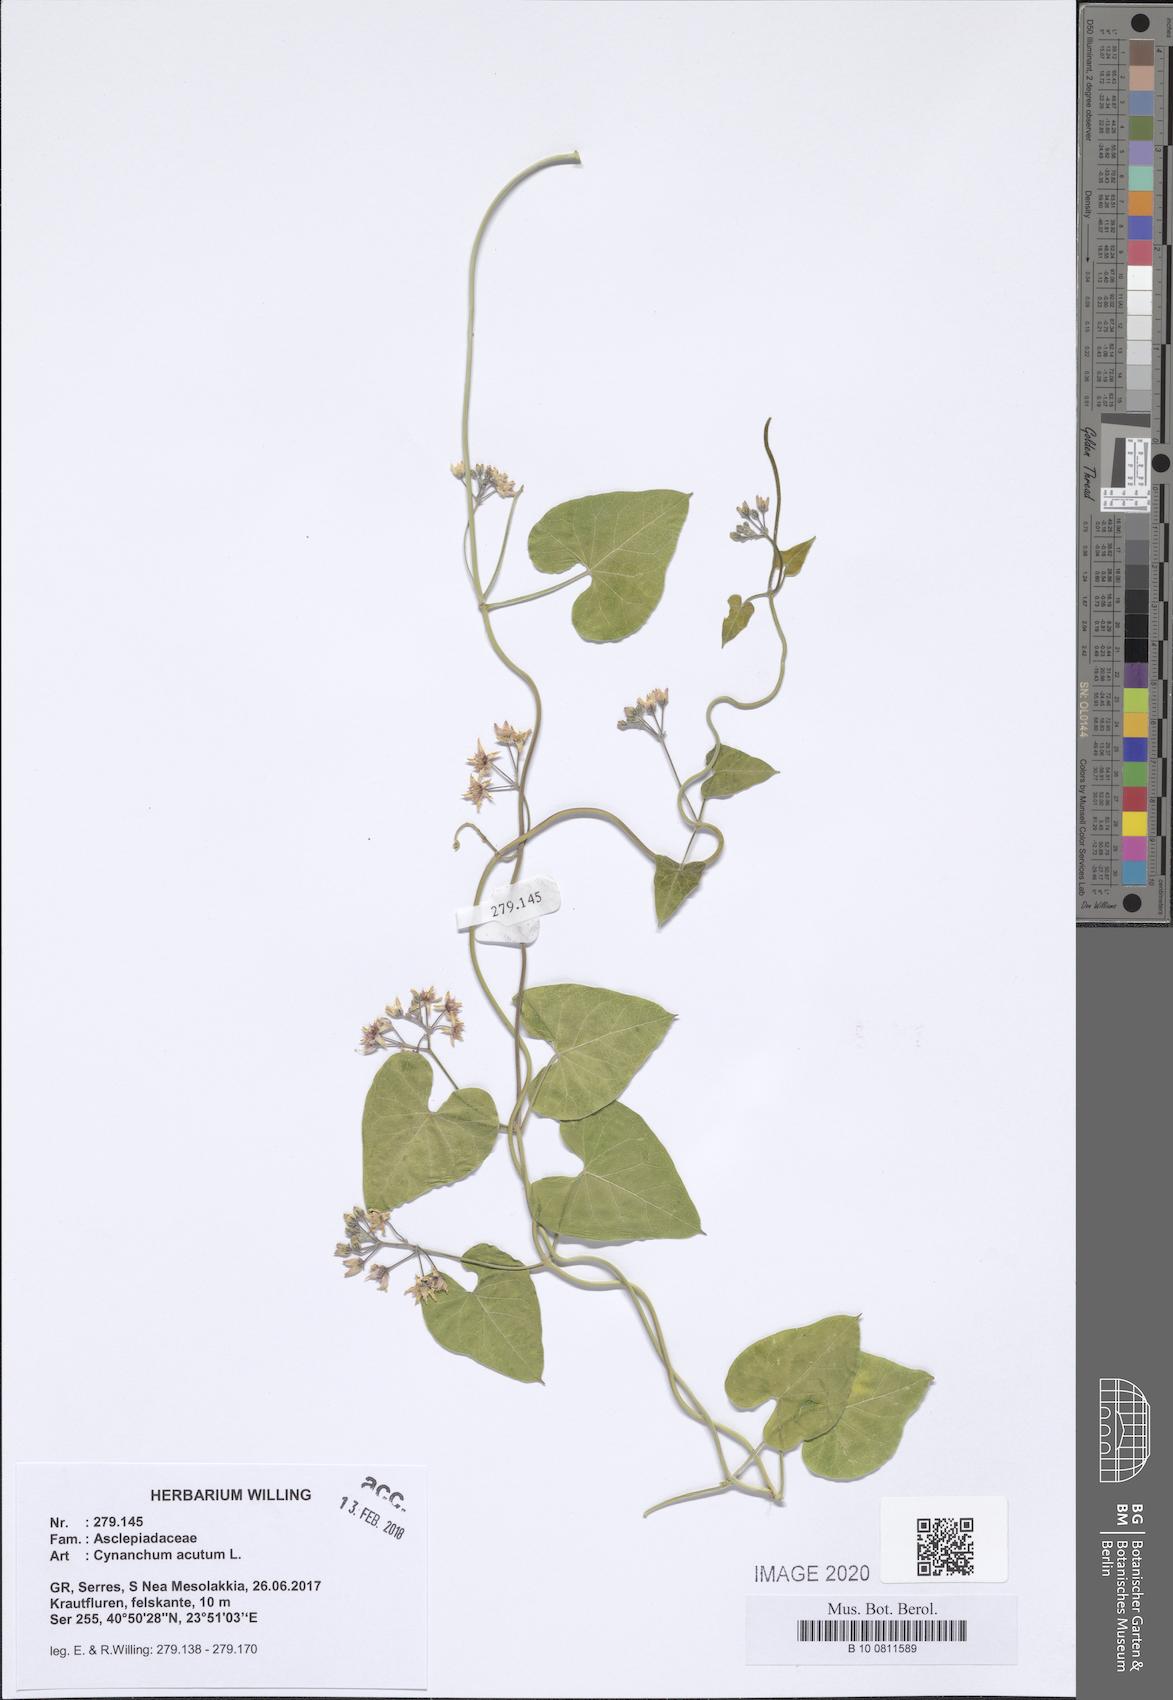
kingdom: Plantae
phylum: Tracheophyta
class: Magnoliopsida
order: Gentianales
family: Apocynaceae
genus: Cynanchum
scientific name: Cynanchum acutum
